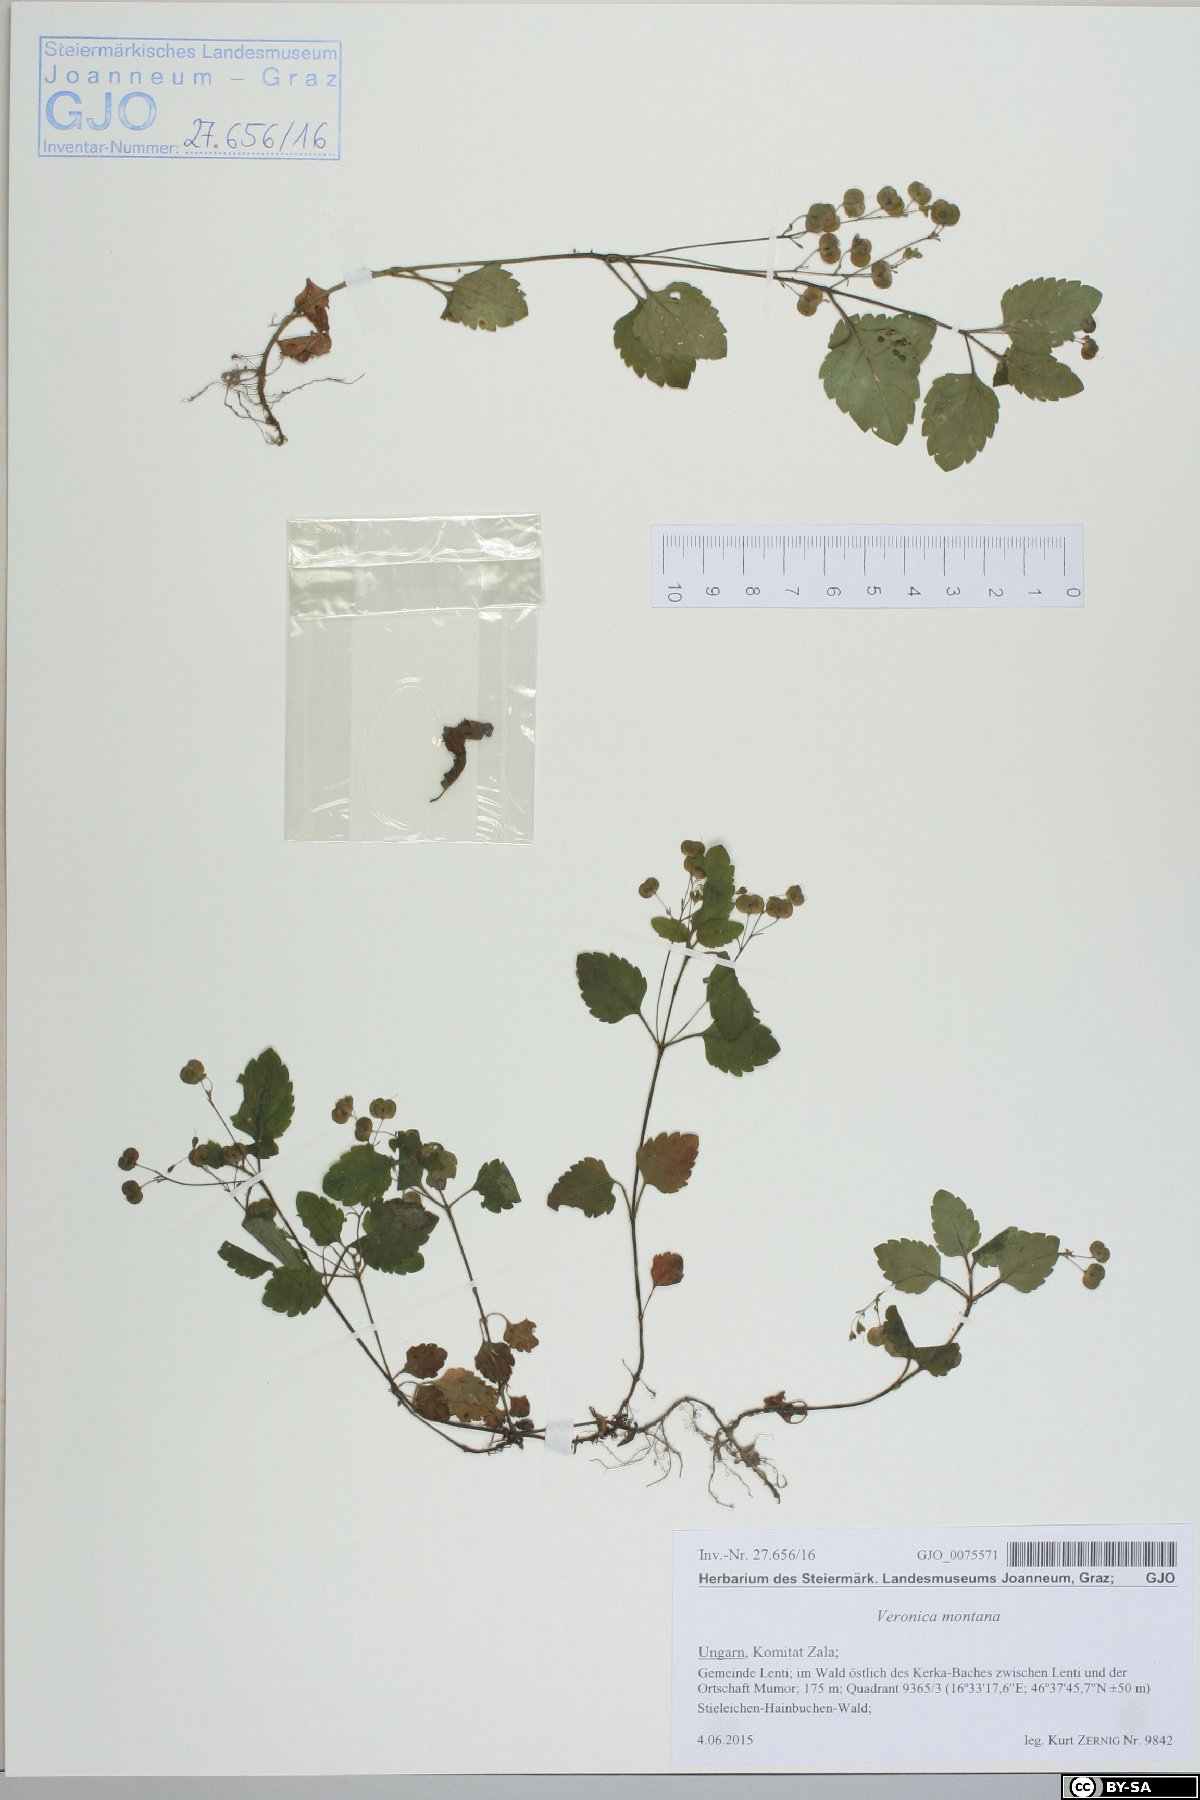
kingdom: Plantae
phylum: Tracheophyta
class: Magnoliopsida
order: Lamiales
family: Plantaginaceae
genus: Veronica
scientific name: Veronica montana
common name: Wood speedwell
